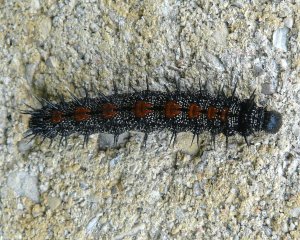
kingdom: Animalia
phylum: Arthropoda
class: Insecta
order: Lepidoptera
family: Nymphalidae
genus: Nymphalis
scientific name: Nymphalis antiopa
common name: Mourning Cloak
